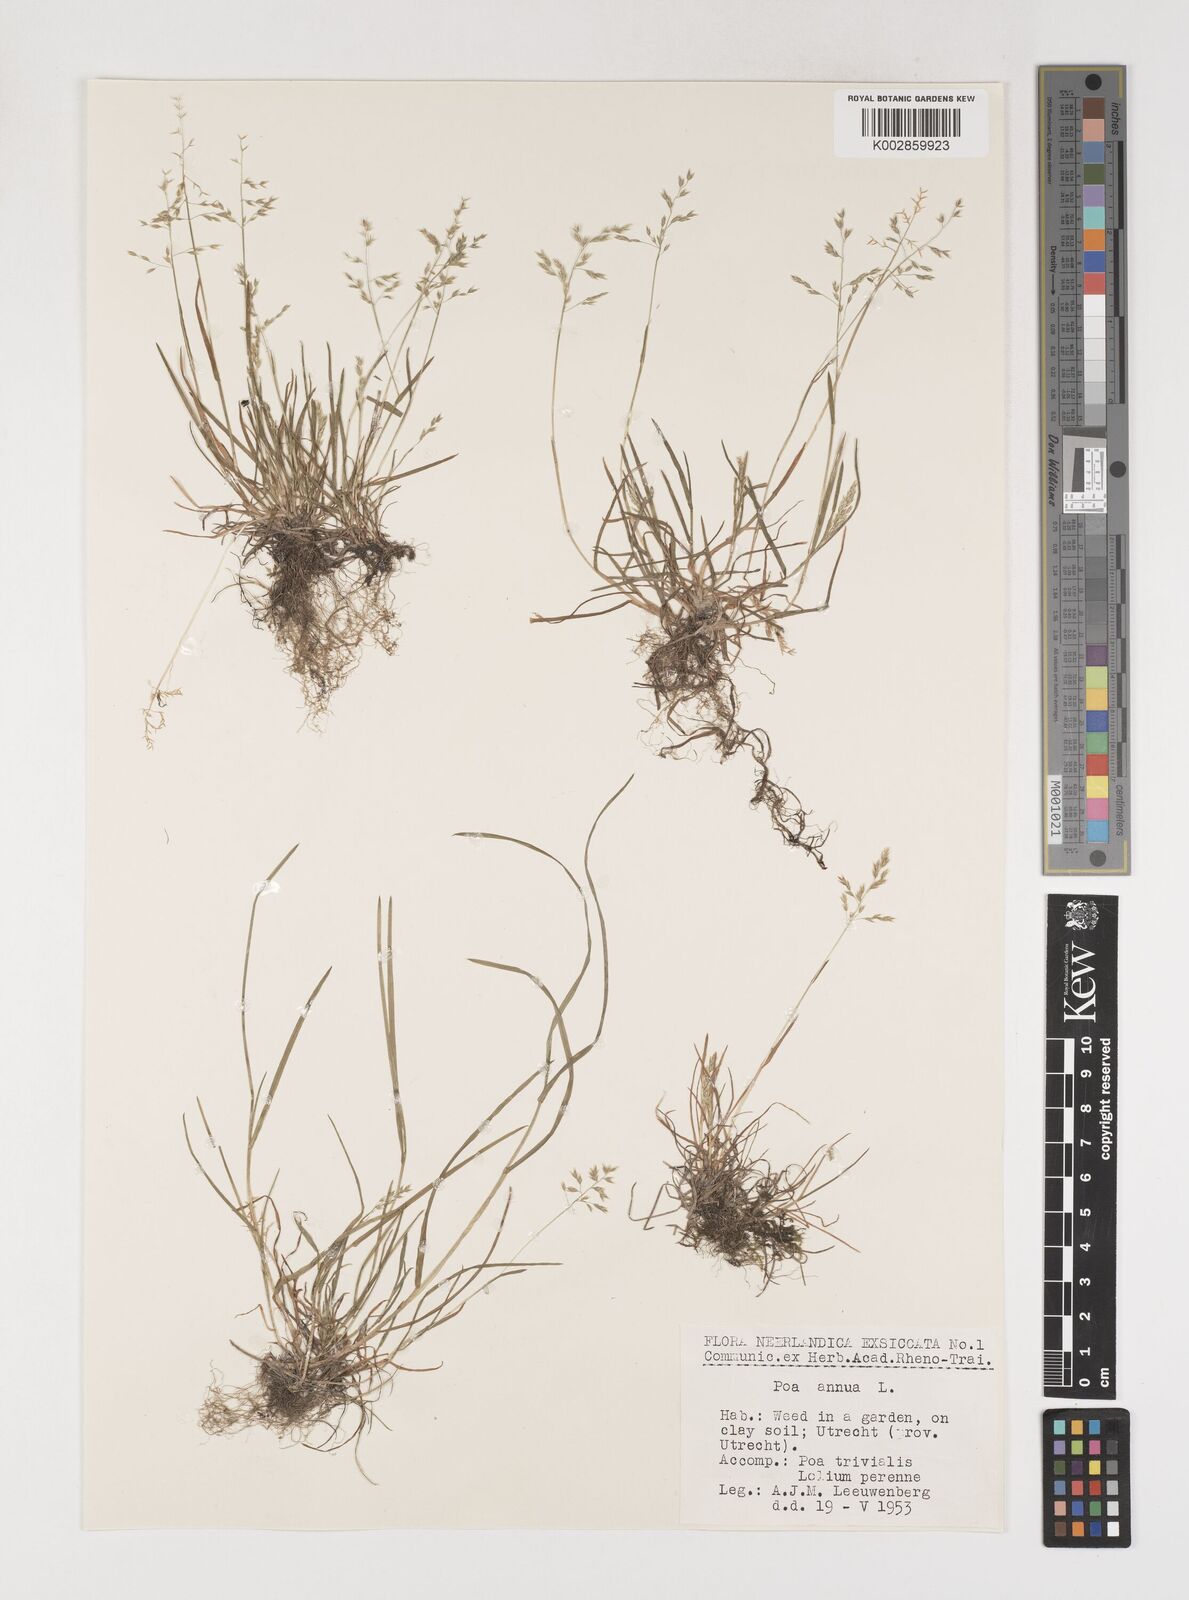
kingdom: Plantae
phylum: Tracheophyta
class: Liliopsida
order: Poales
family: Poaceae
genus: Poa
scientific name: Poa annua
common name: Annual bluegrass
